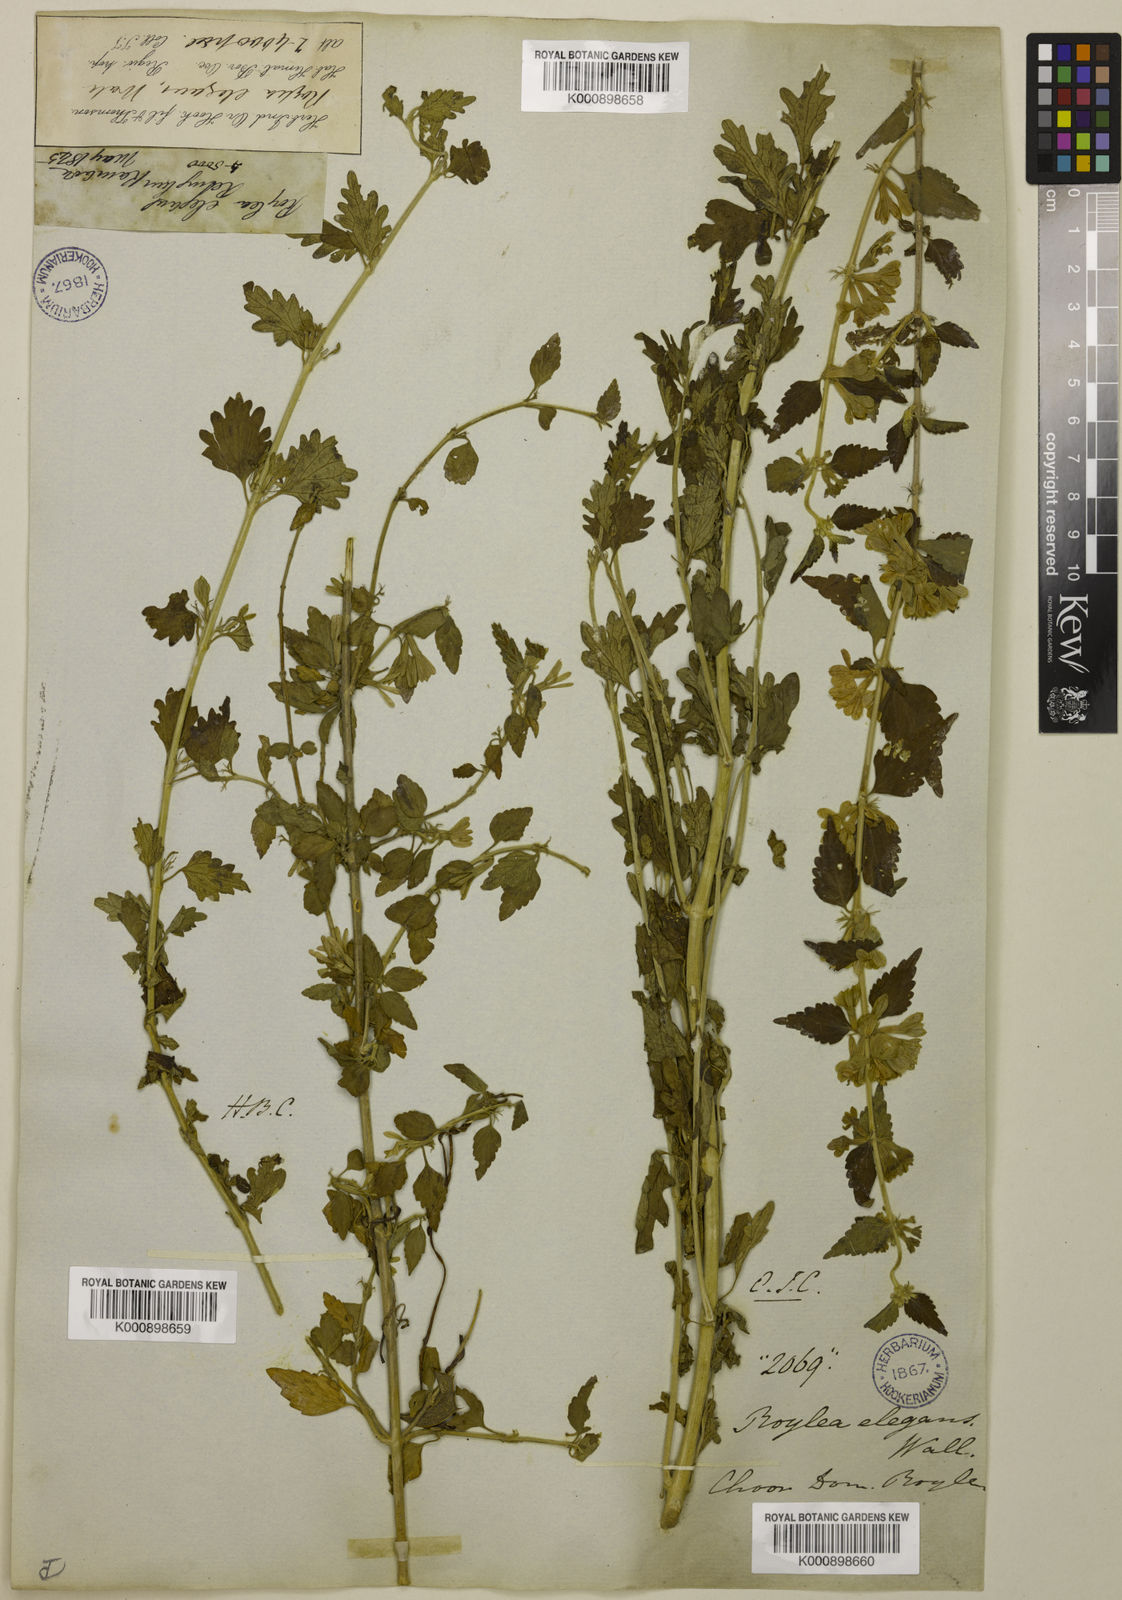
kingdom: Plantae
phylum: Tracheophyta
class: Magnoliopsida
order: Lamiales
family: Lamiaceae
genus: Roylea
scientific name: Roylea
